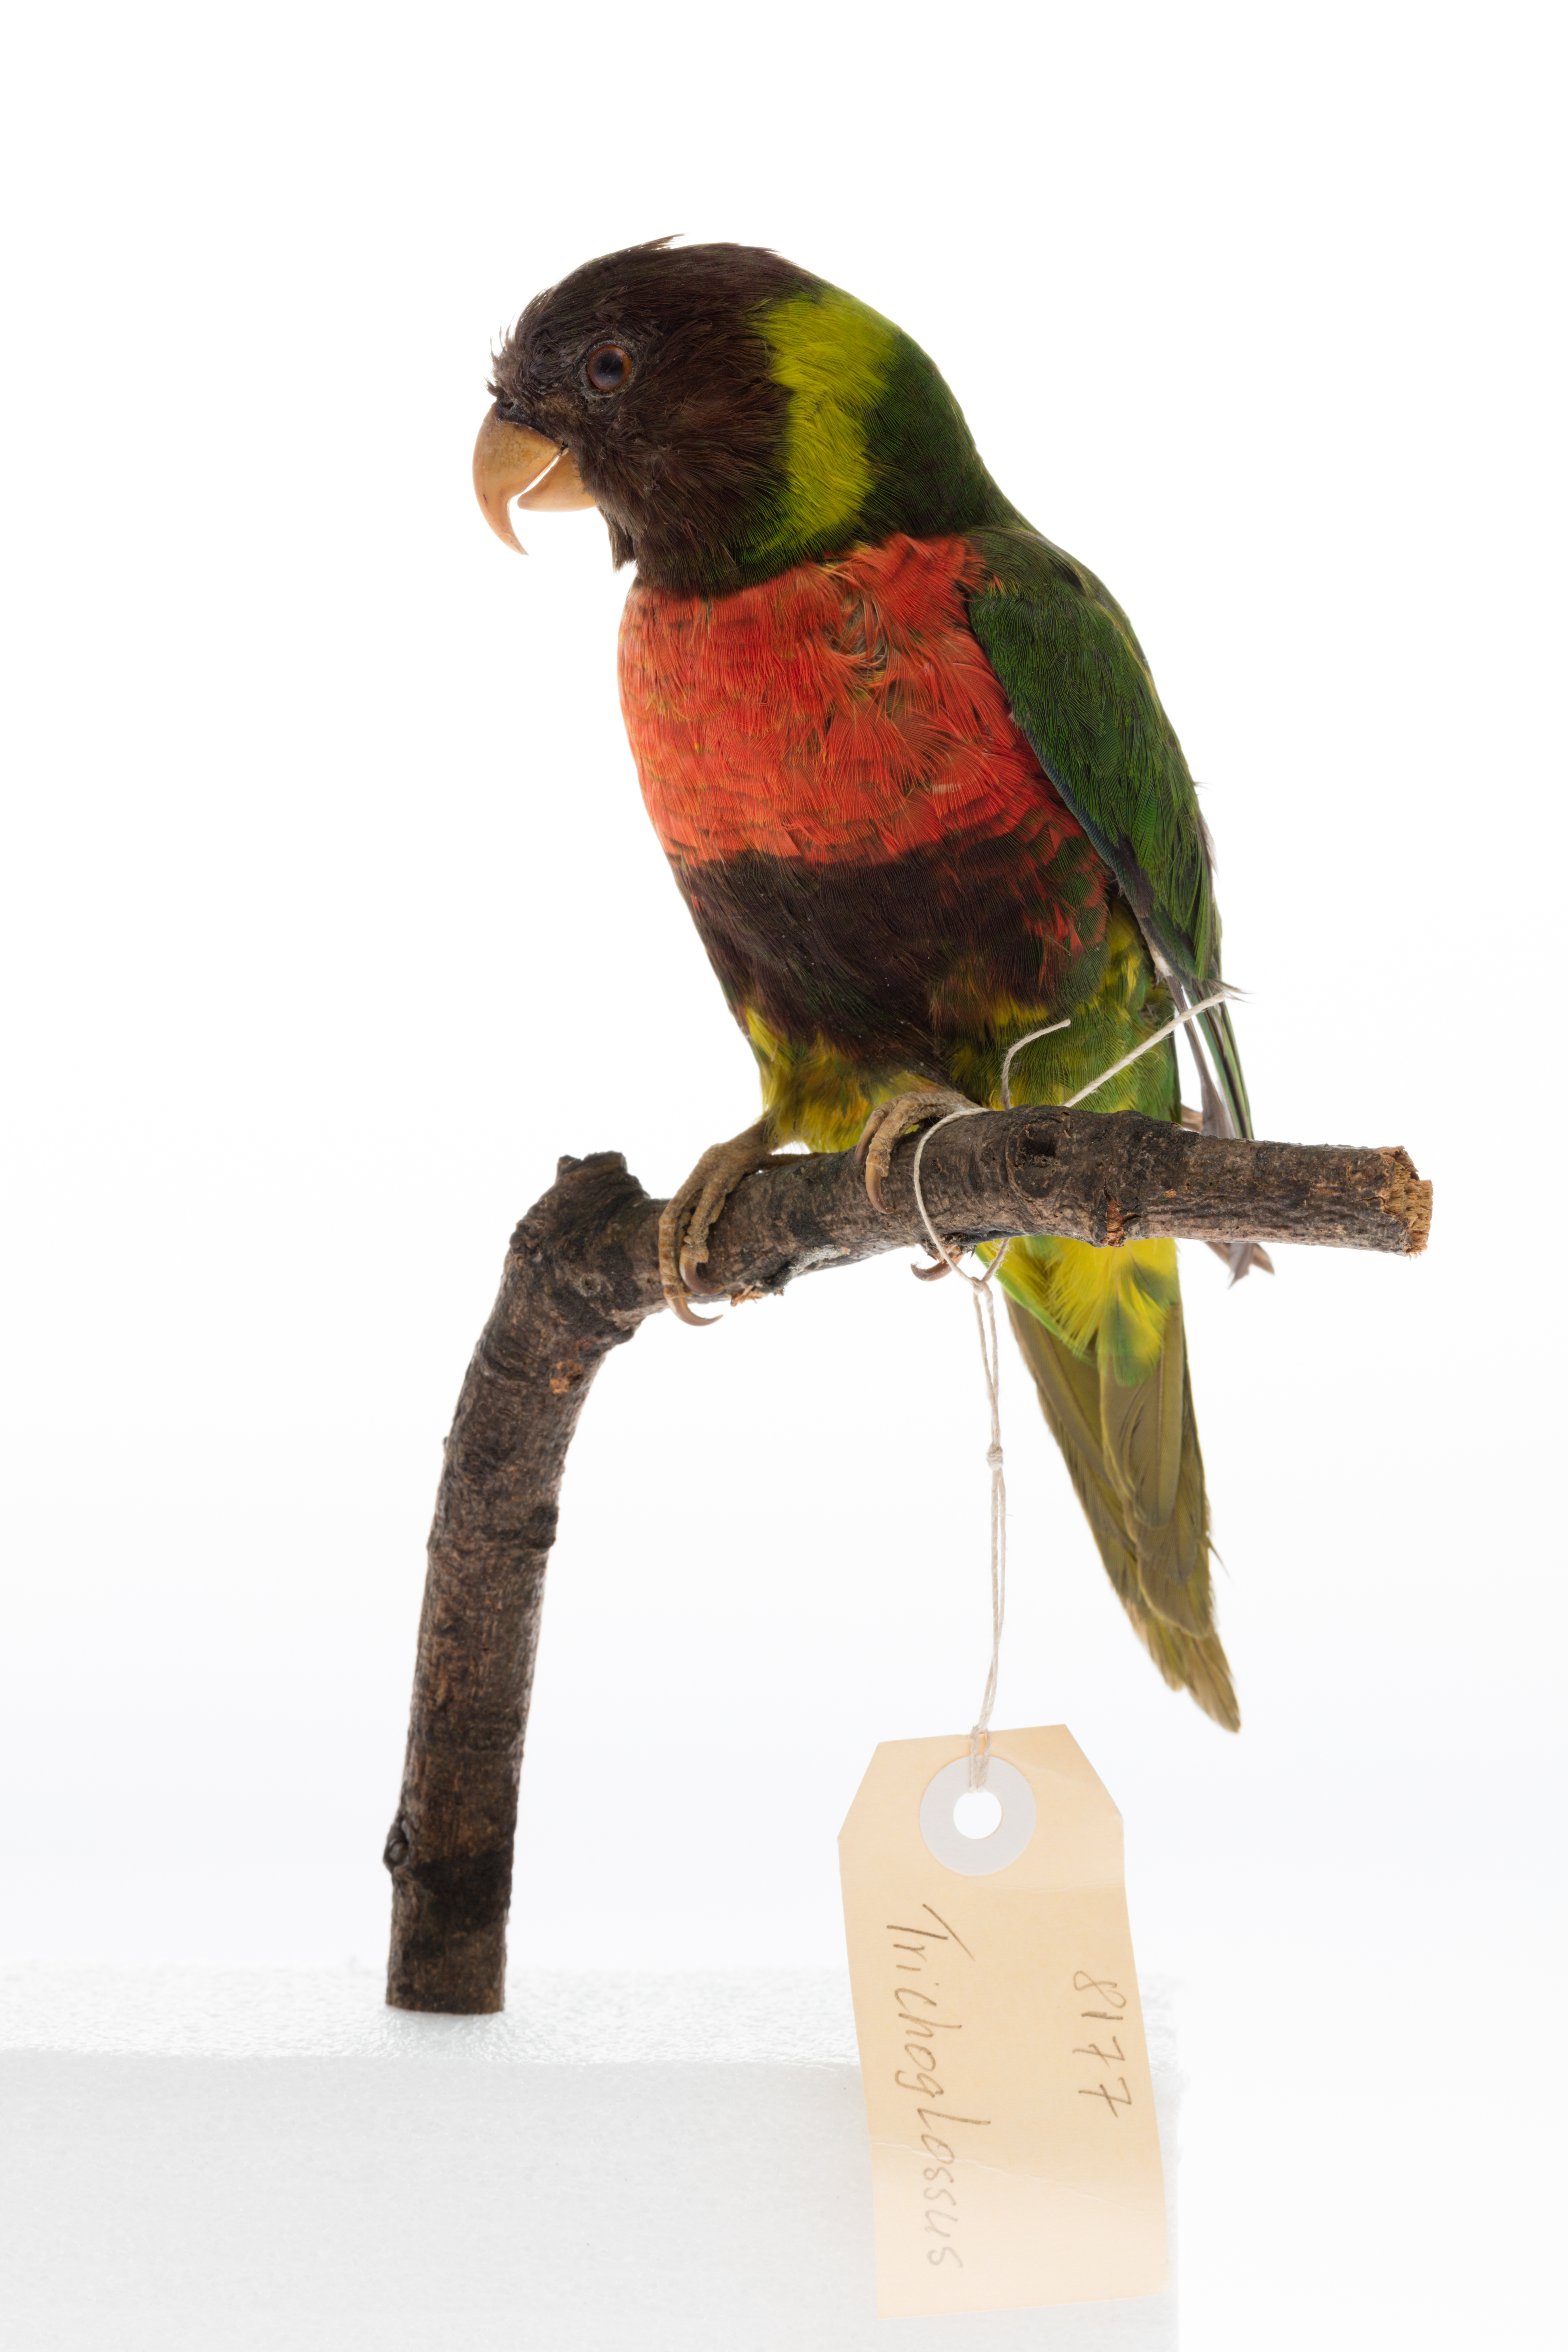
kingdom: Animalia
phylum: Chordata
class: Aves
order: Psittaciformes
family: Psittacidae
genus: Trichoglossus
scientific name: Trichoglossus haematodus
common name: Coconut lorikeet
